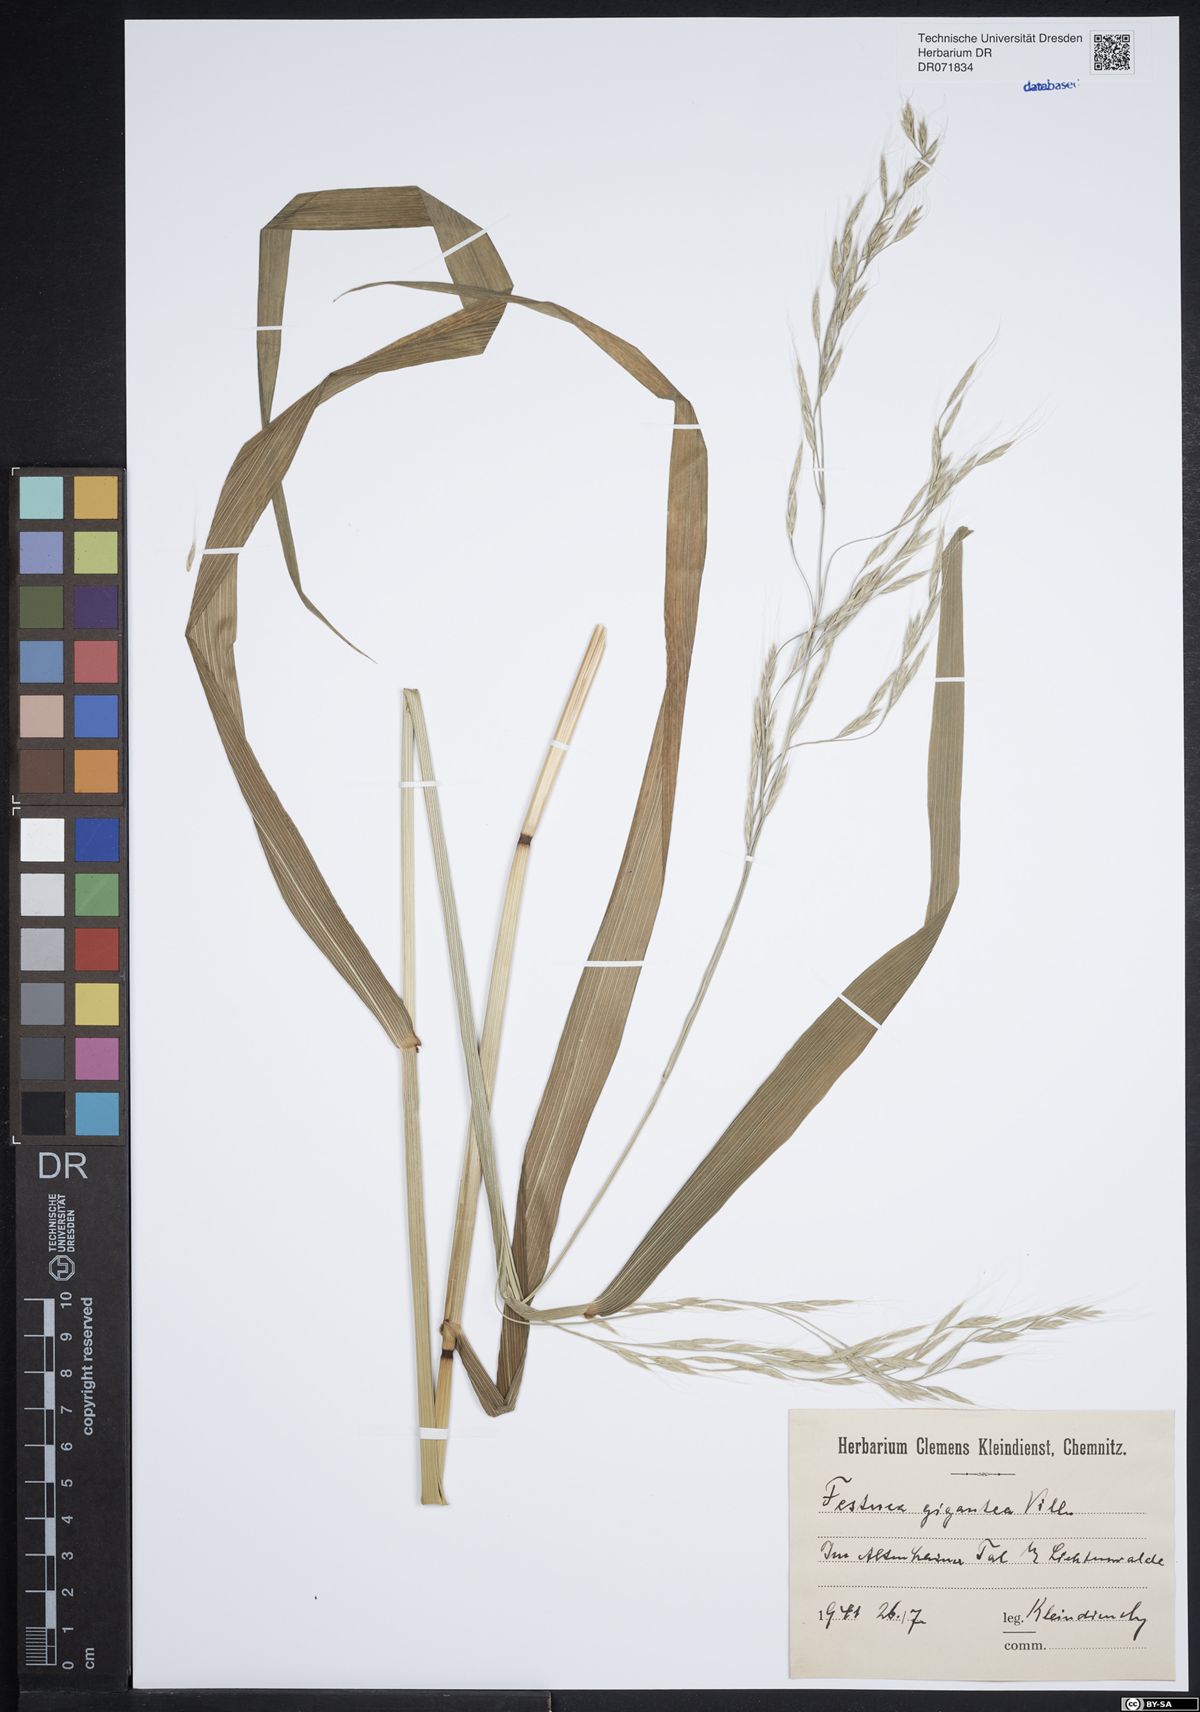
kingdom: Plantae
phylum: Tracheophyta
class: Liliopsida
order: Poales
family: Poaceae
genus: Lolium
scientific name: Lolium giganteum
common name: Giant fescue
